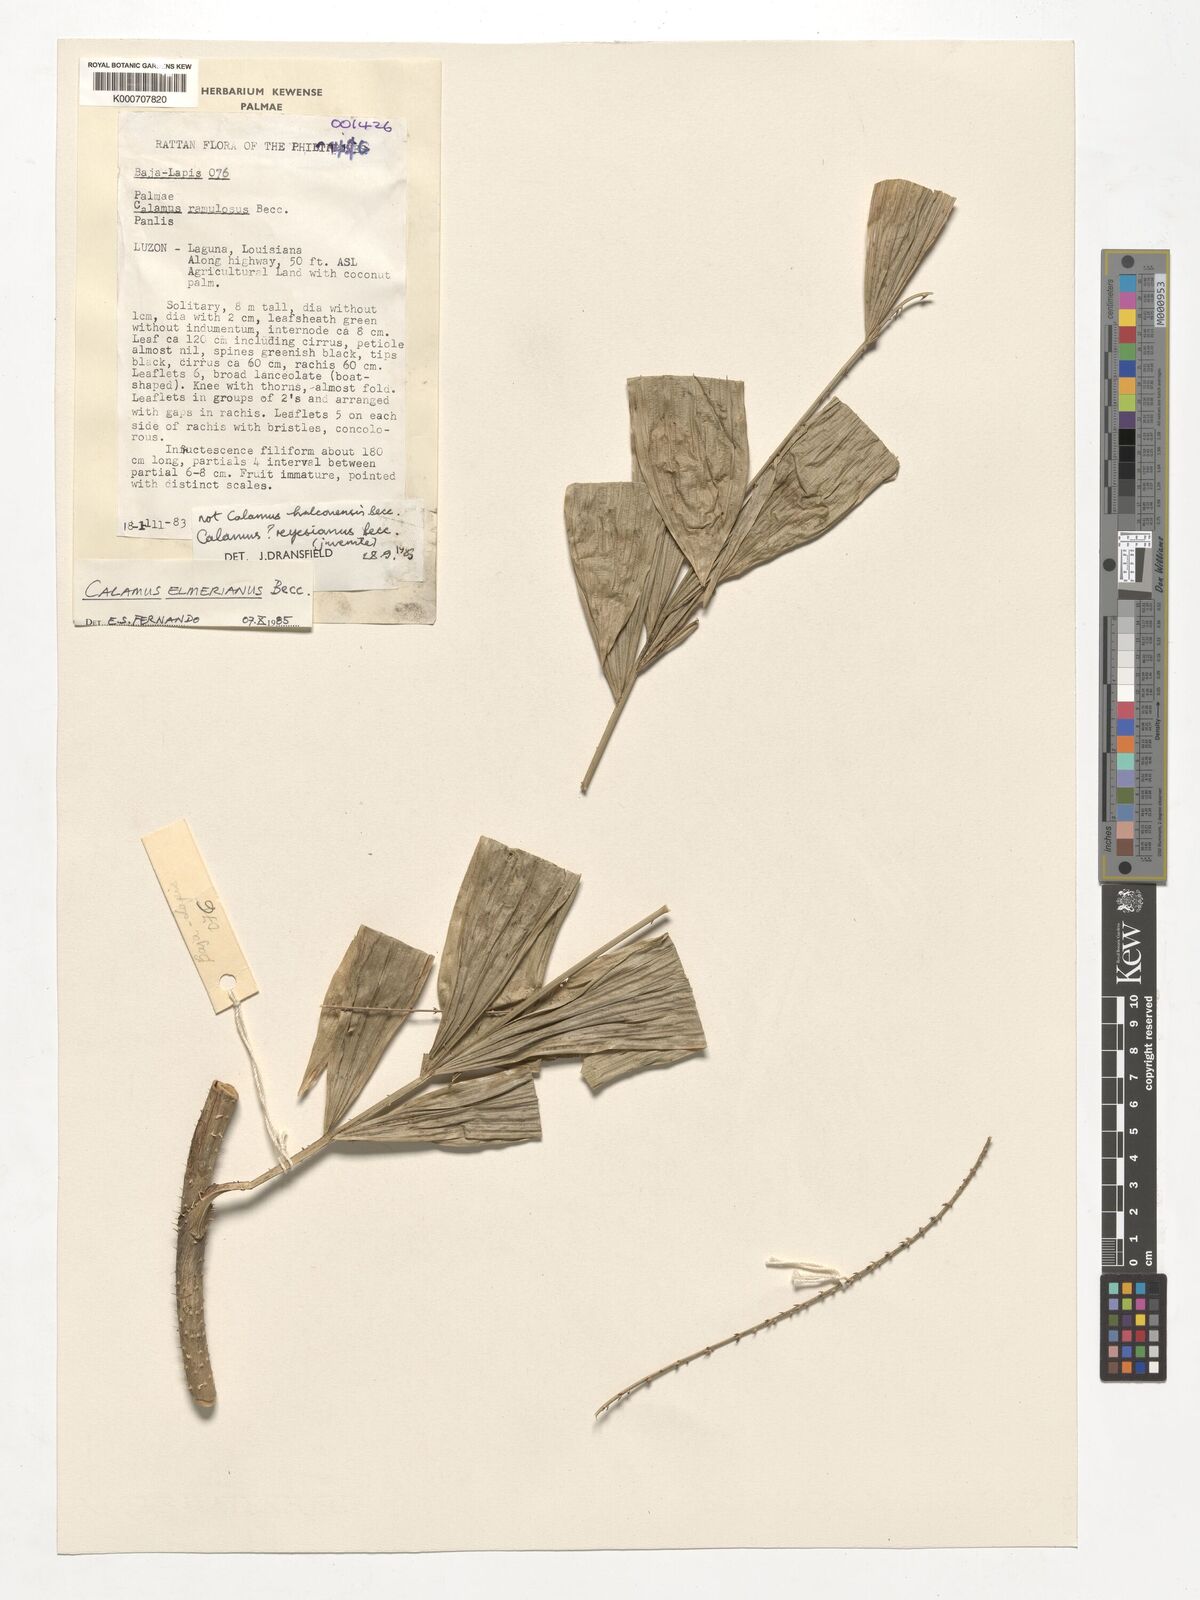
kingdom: Plantae
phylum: Tracheophyta
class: Liliopsida
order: Arecales
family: Arecaceae
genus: Calamus
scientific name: Calamus mitis
